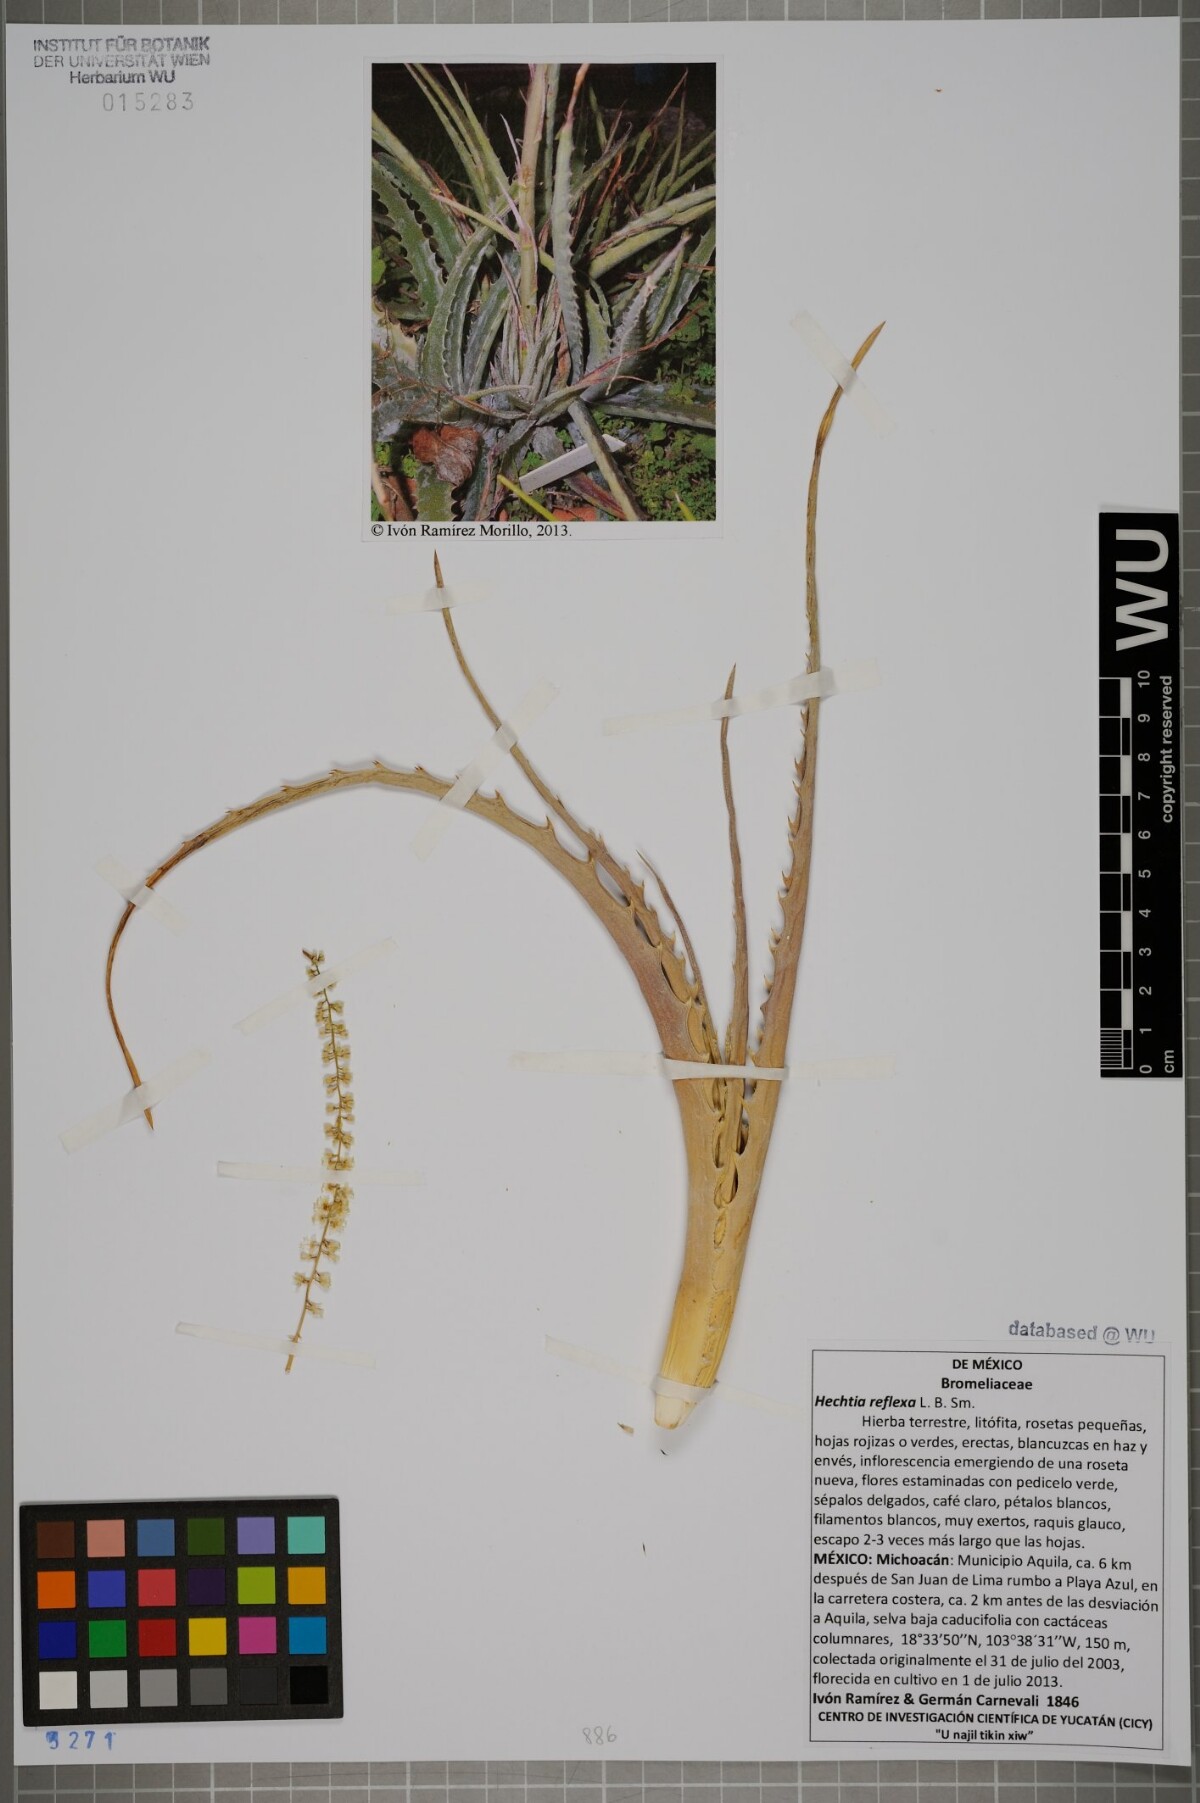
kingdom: Plantae
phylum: Tracheophyta
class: Liliopsida
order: Poales
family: Bromeliaceae
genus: Hechtia
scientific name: Hechtia reflexa
